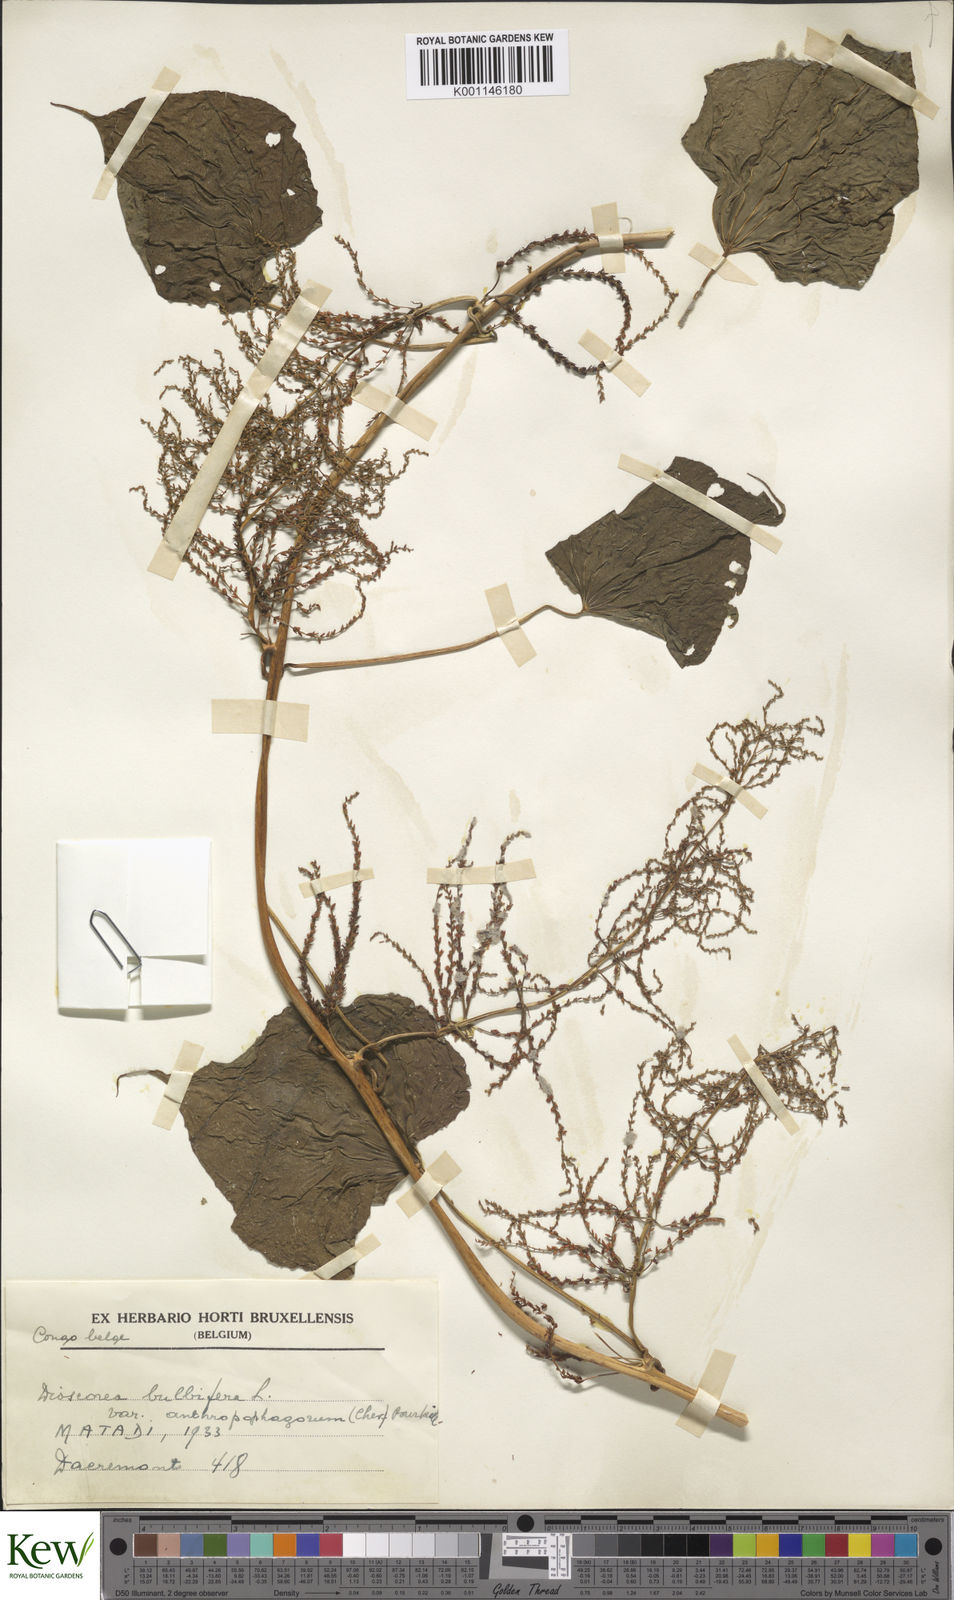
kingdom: Plantae
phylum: Tracheophyta
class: Liliopsida
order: Dioscoreales
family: Dioscoreaceae
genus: Dioscorea
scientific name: Dioscorea bulbifera
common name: Air yam
